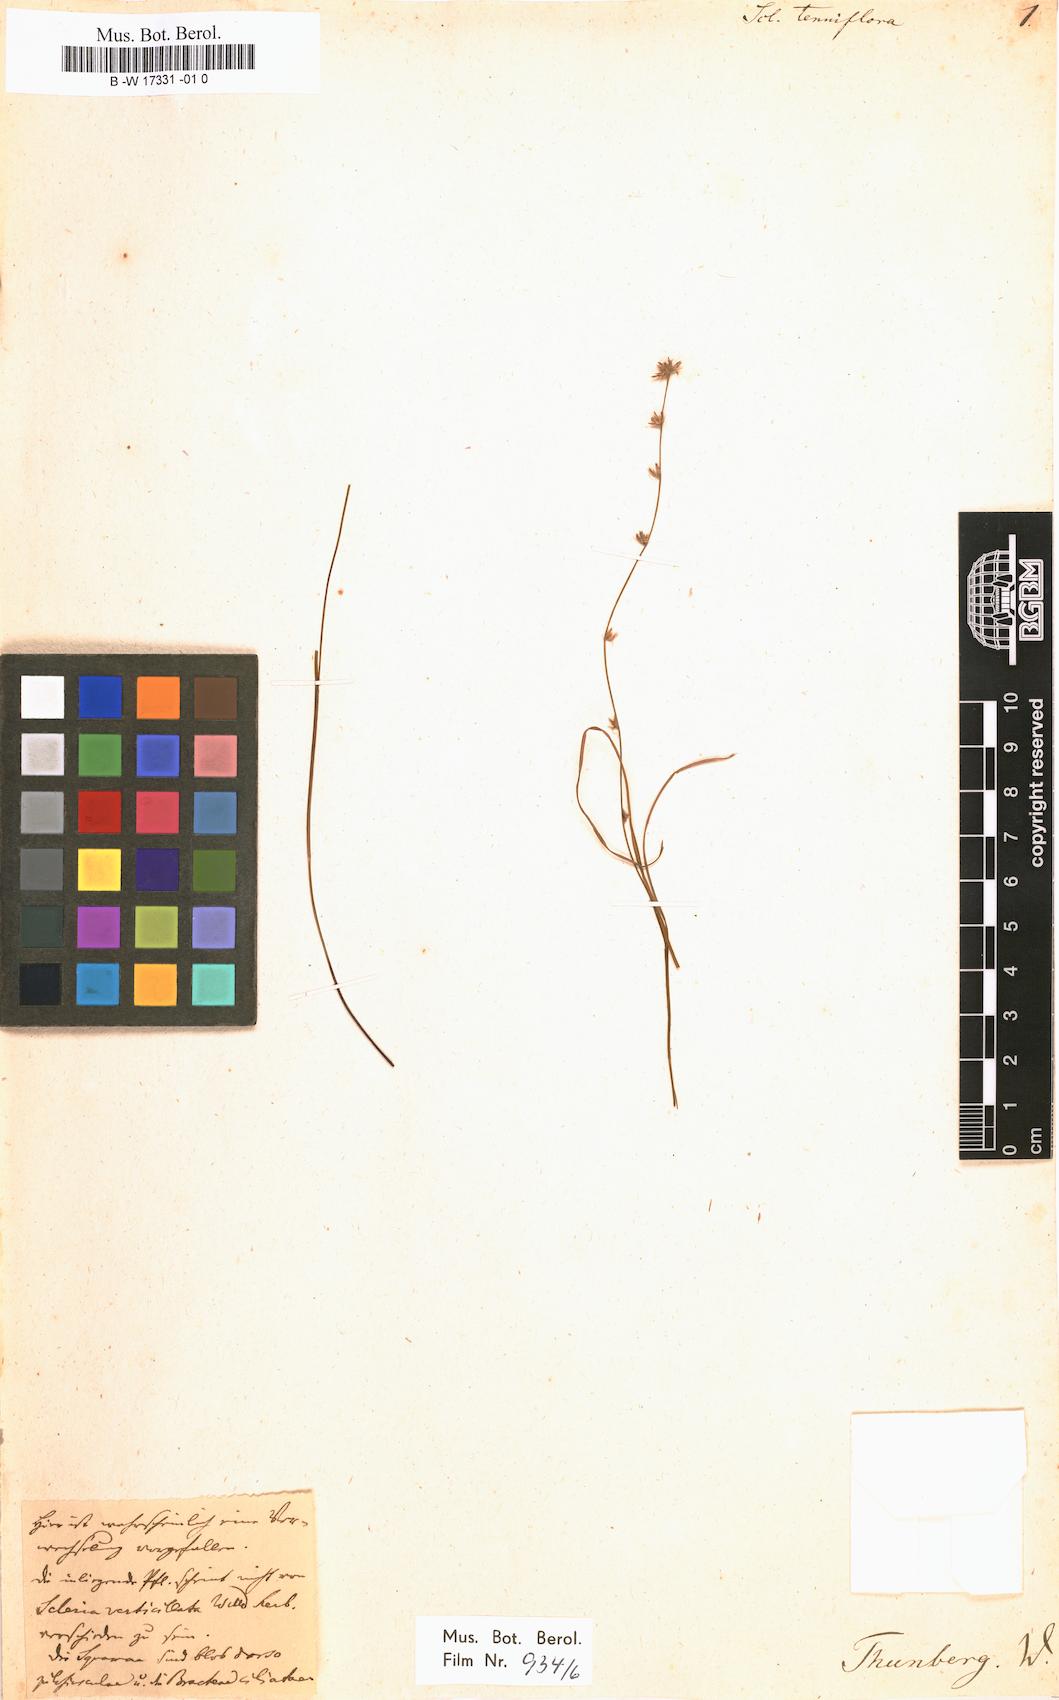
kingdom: Plantae
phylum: Tracheophyta
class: Liliopsida
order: Poales
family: Cyperaceae
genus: Scleria
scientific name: Scleria tricholepis
